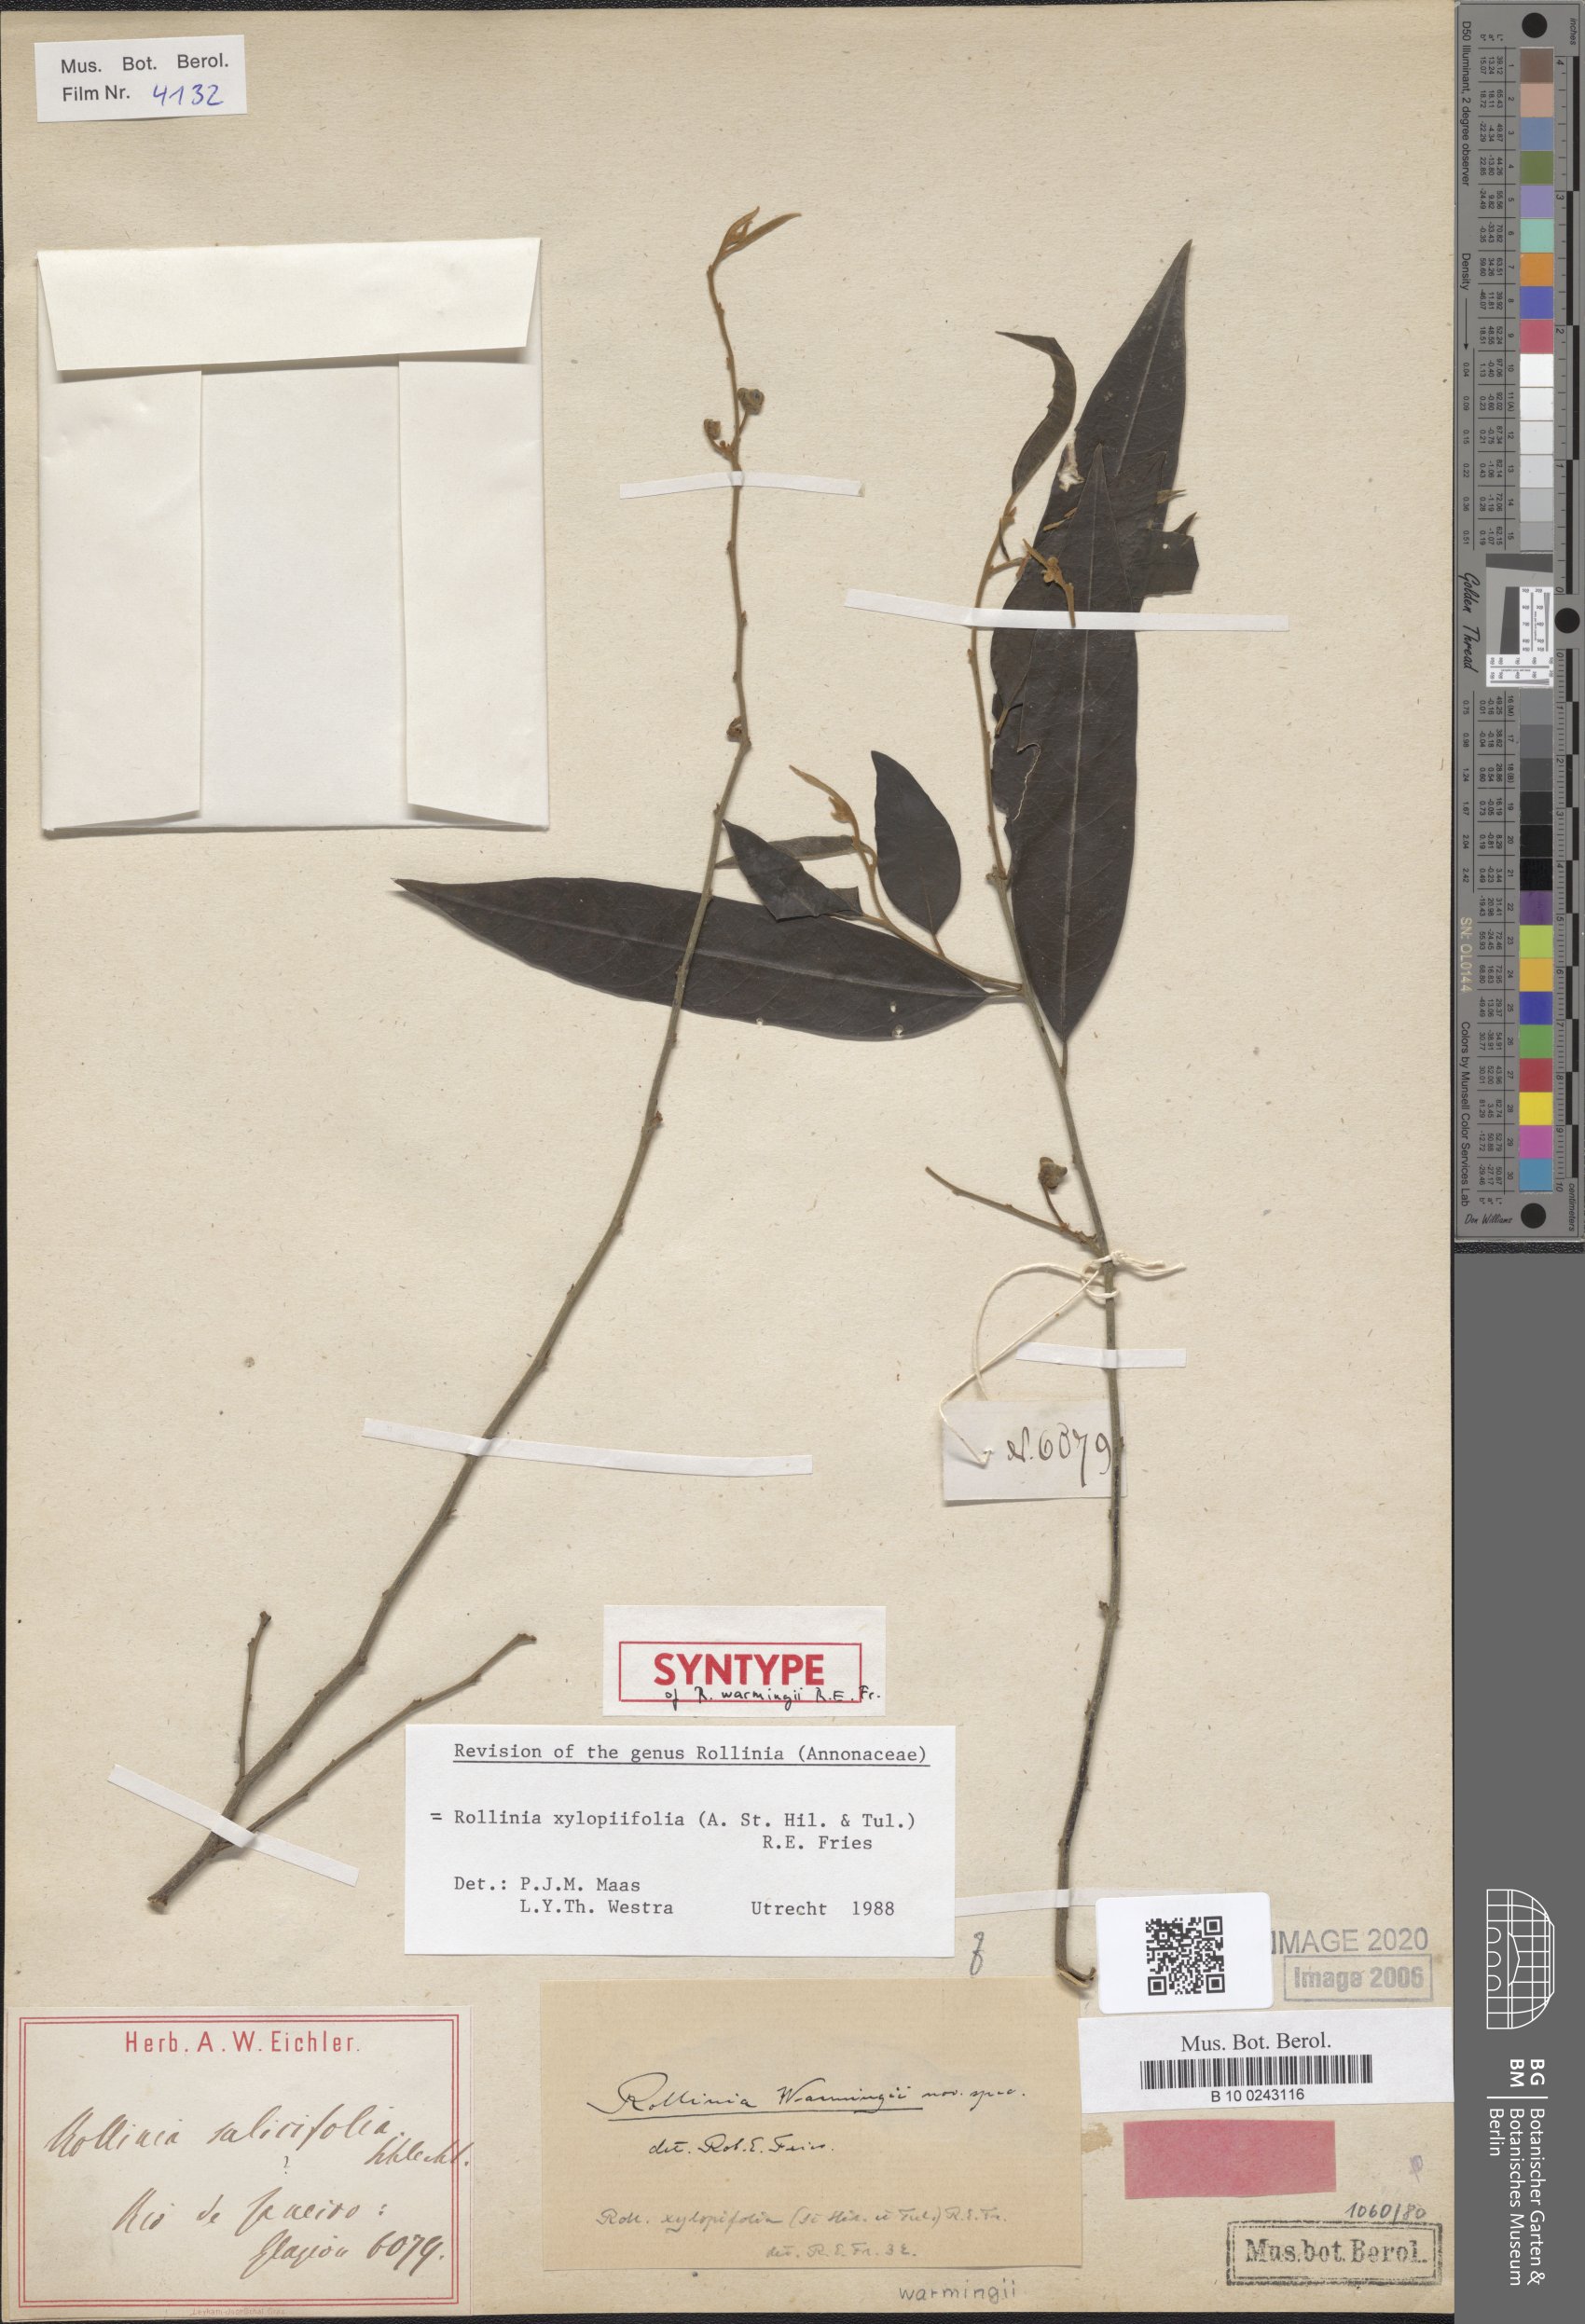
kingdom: Plantae
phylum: Tracheophyta
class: Magnoliopsida
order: Magnoliales
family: Annonaceae
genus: Annona
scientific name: Annona xylopiifolia
